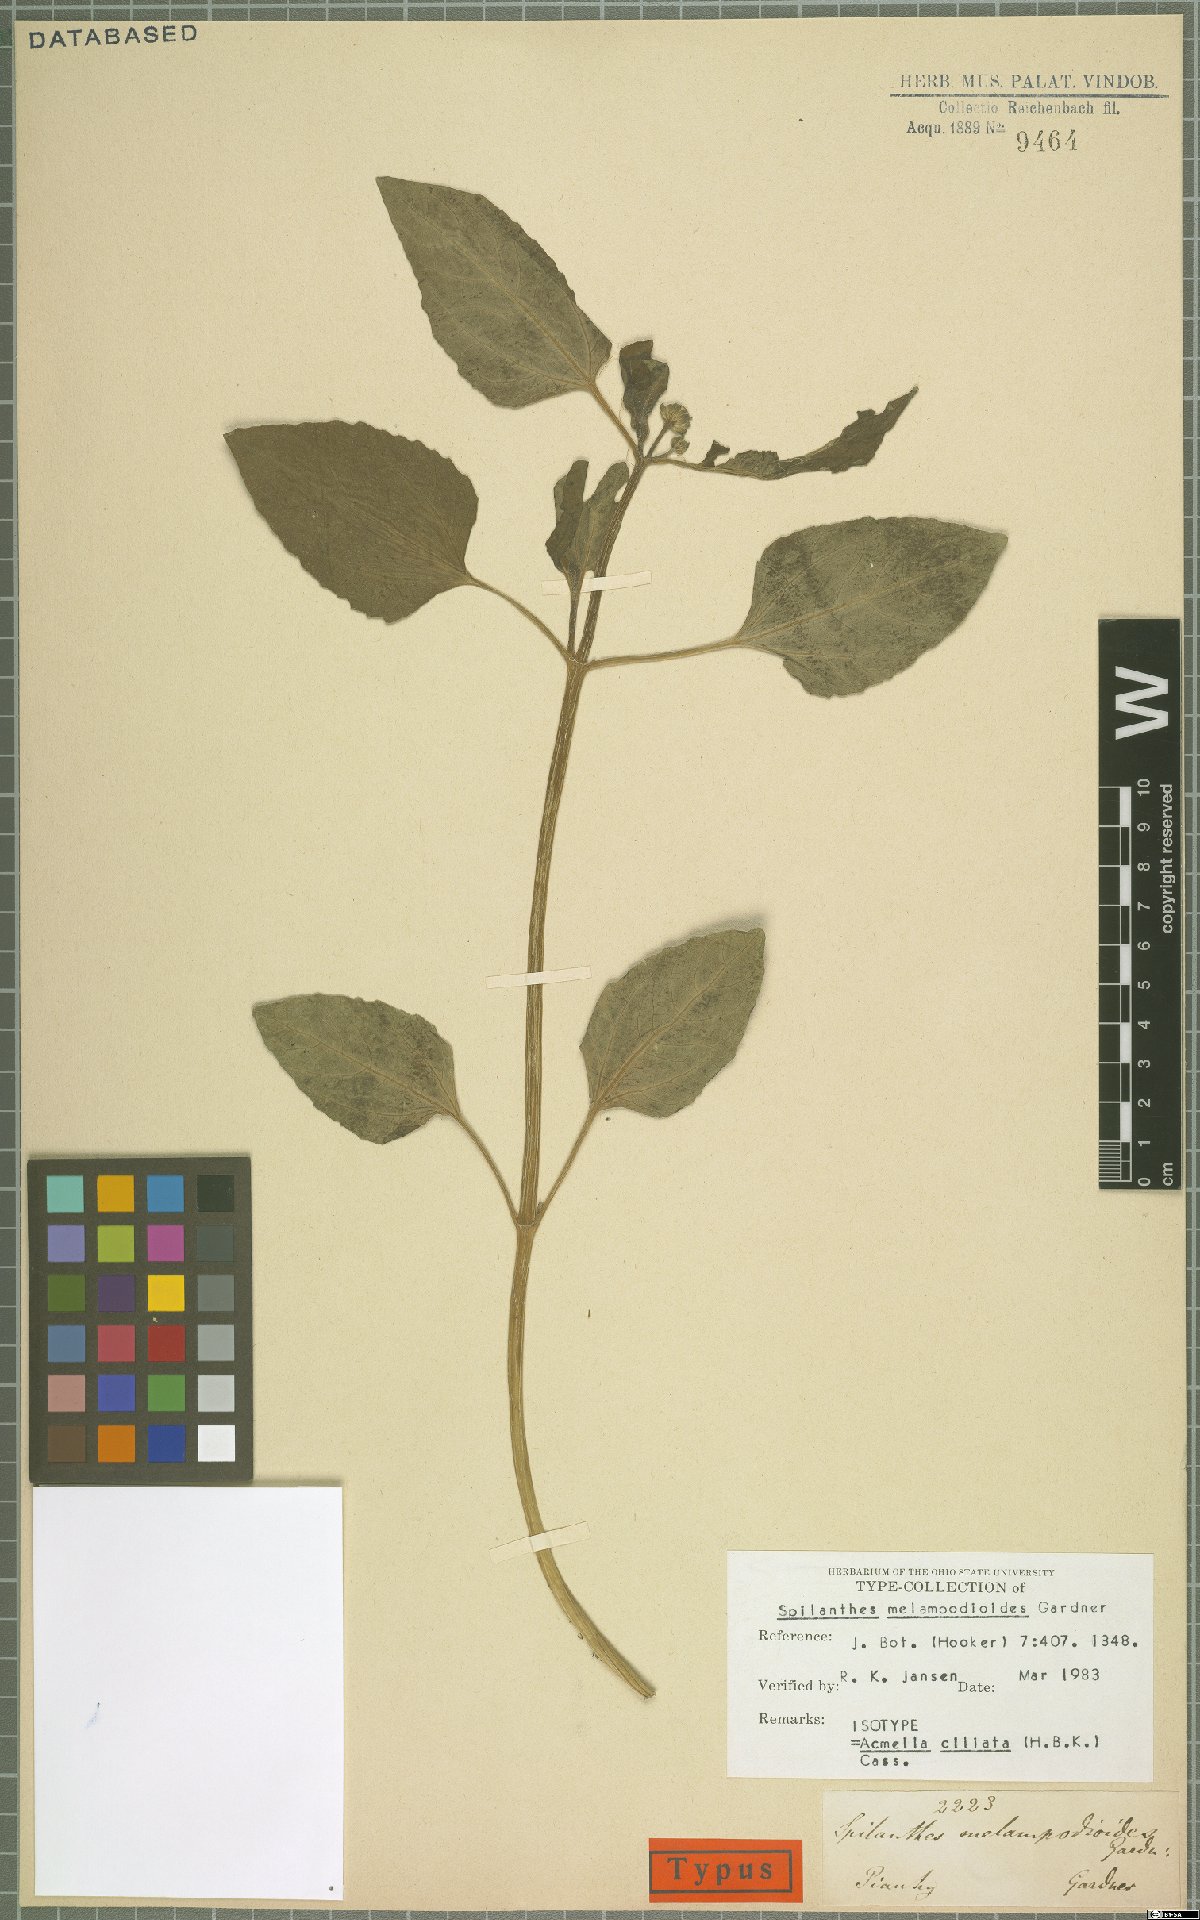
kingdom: Plantae
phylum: Tracheophyta
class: Magnoliopsida
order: Asterales
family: Asteraceae
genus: Acmella
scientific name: Acmella ciliata
